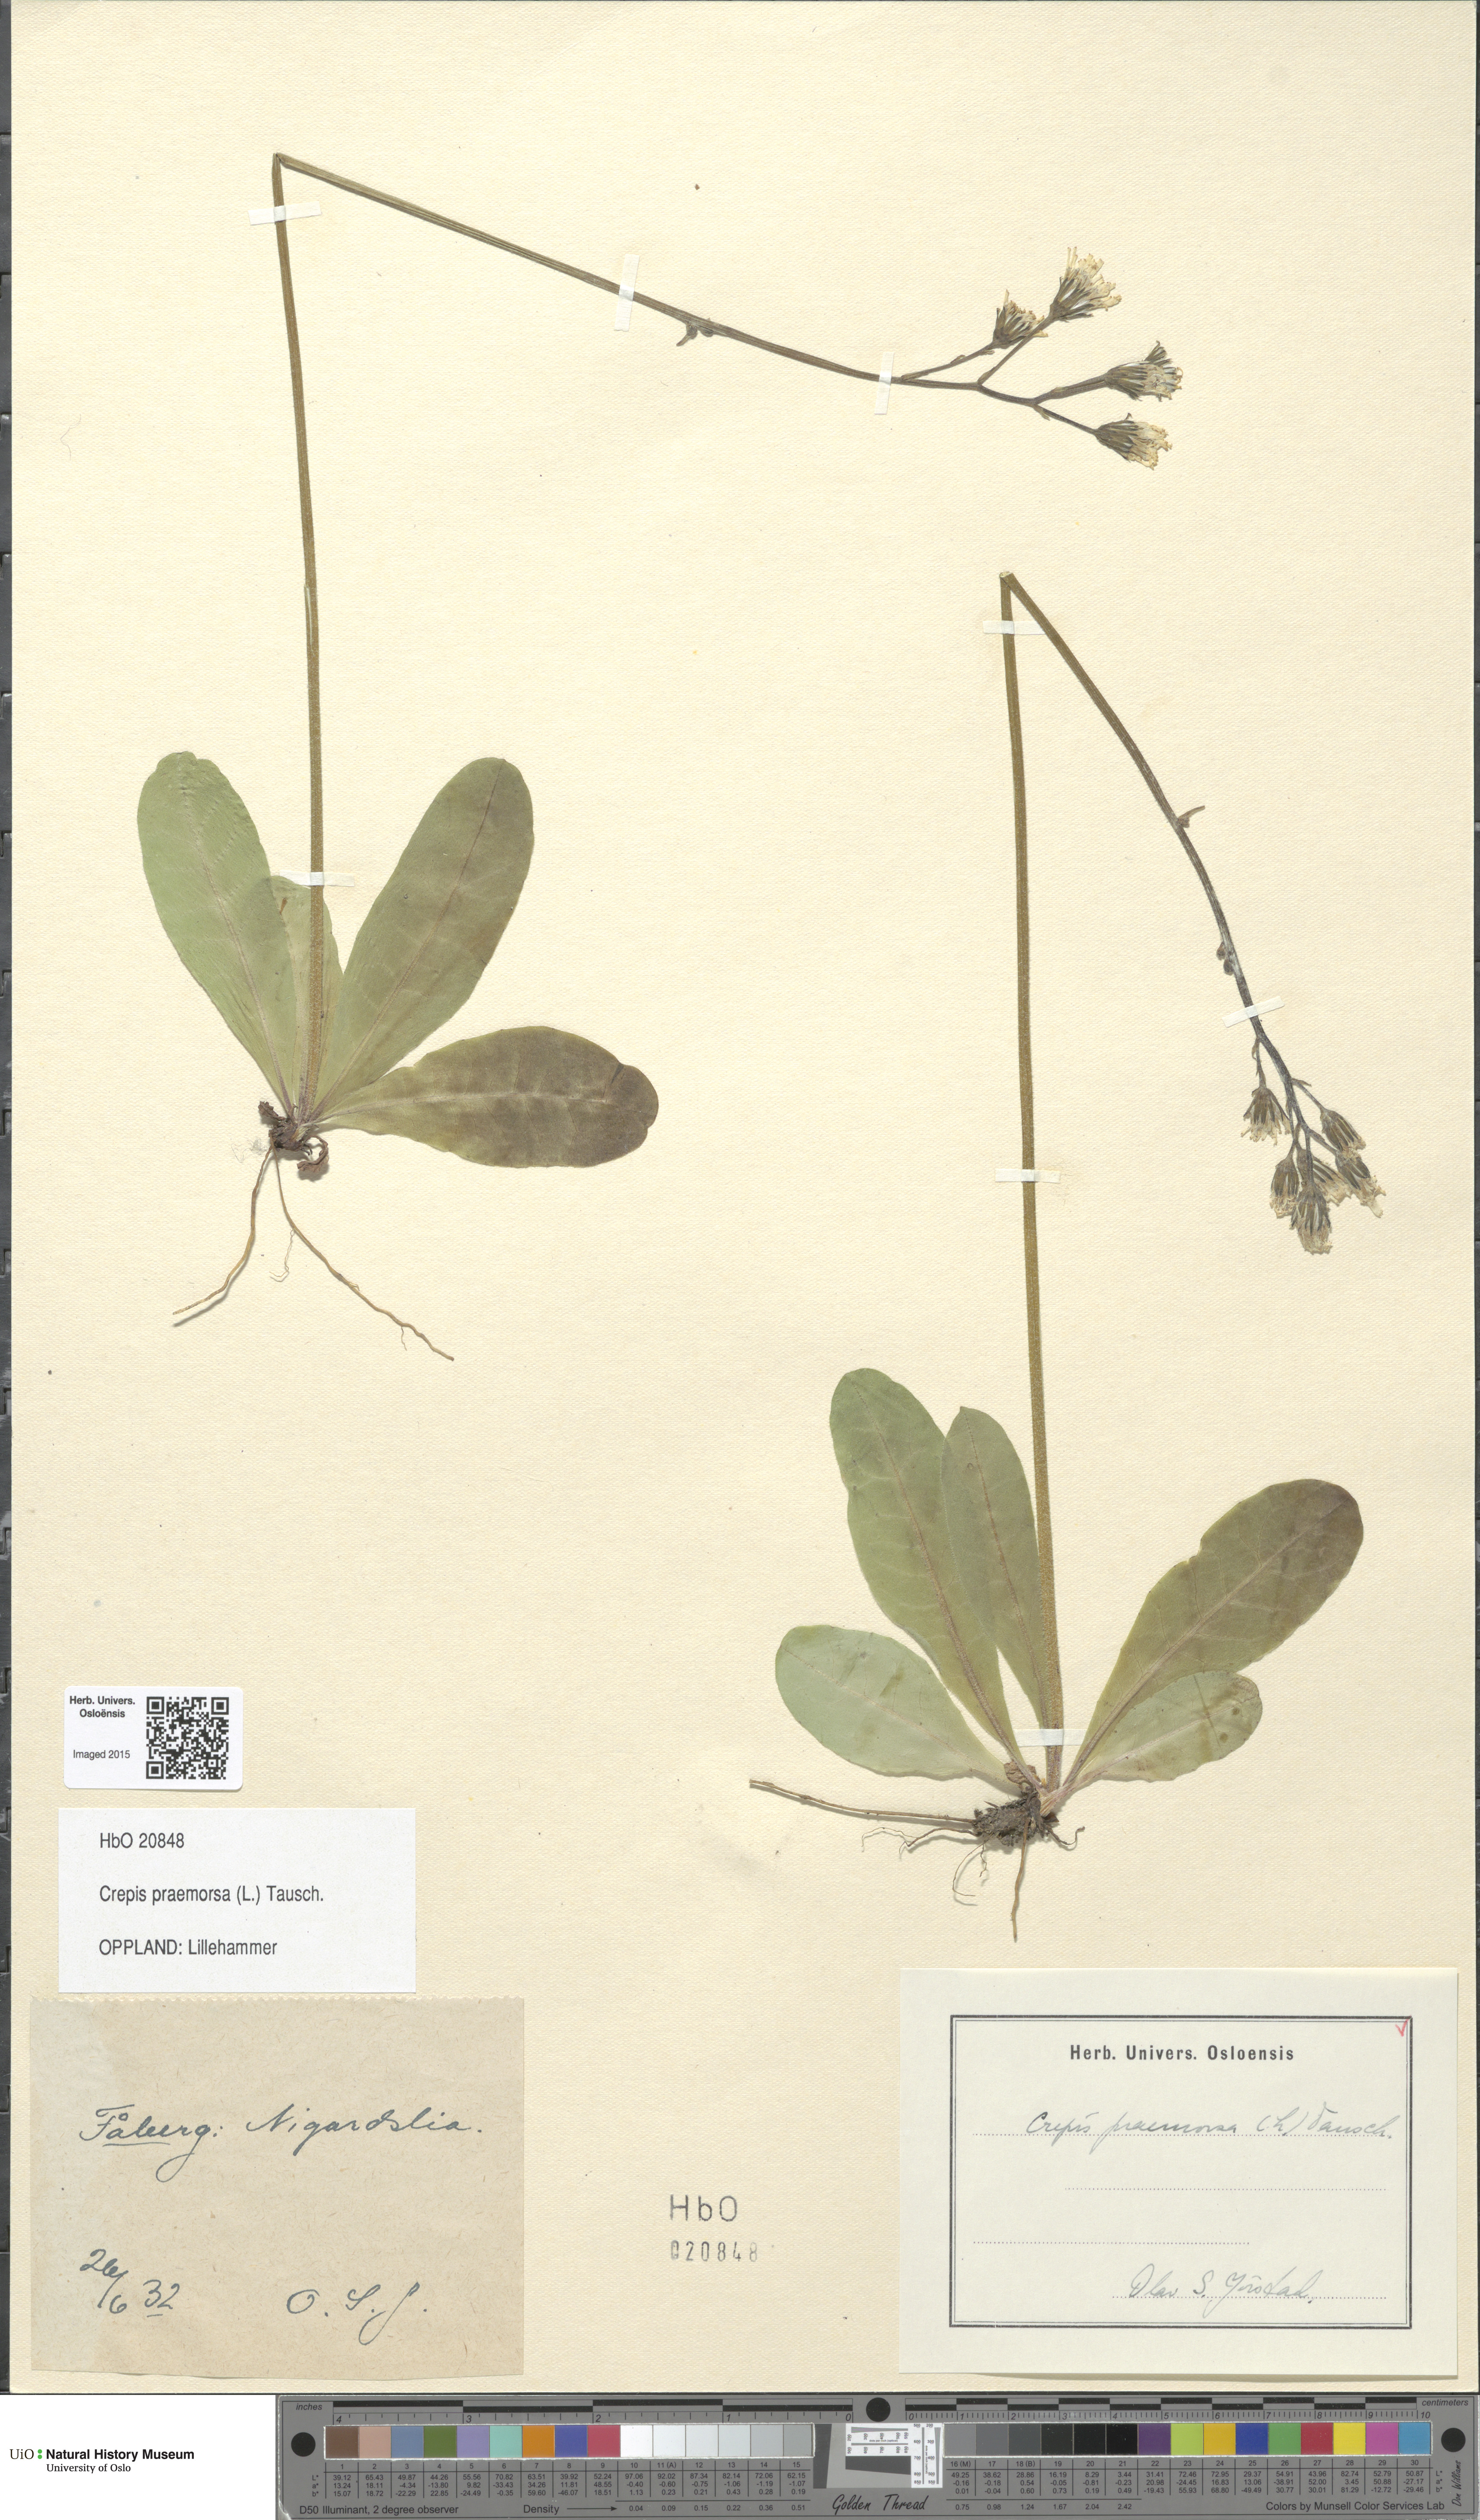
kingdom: Plantae
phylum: Tracheophyta
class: Magnoliopsida
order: Asterales
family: Asteraceae
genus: Crepis
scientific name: Crepis praemorsa
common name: Leafless hawk's-beard
